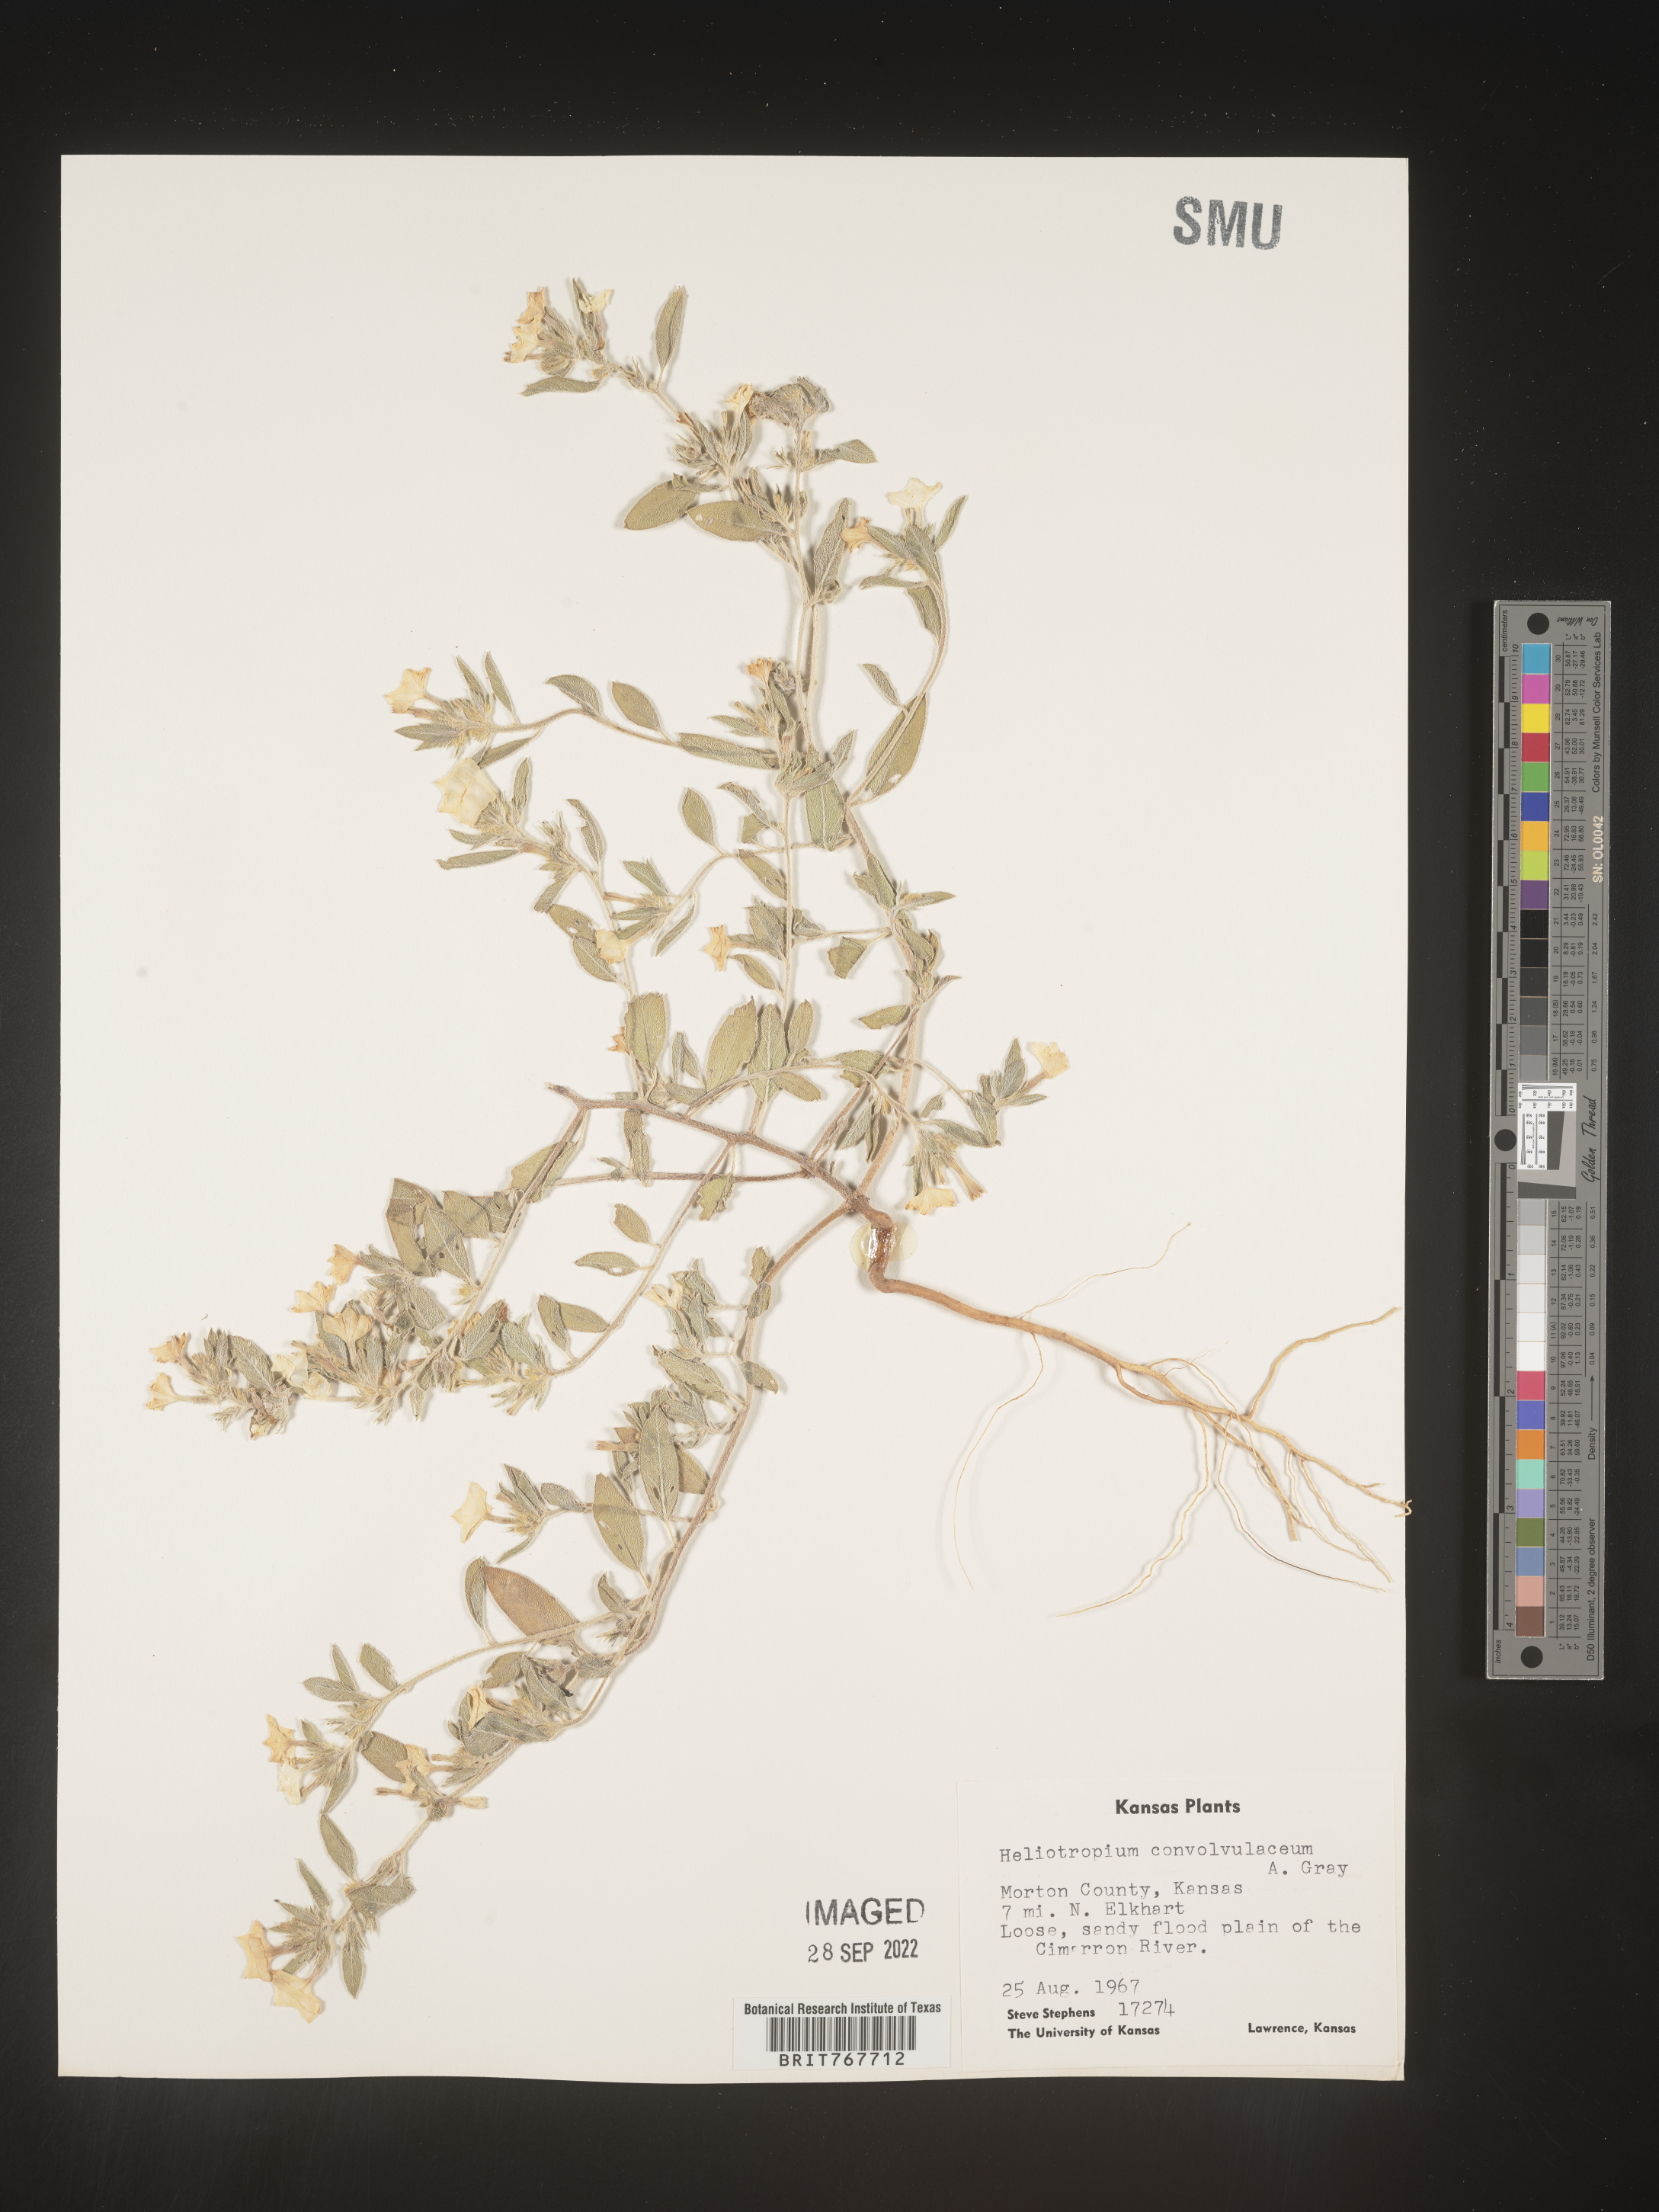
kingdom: Plantae
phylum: Tracheophyta
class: Magnoliopsida
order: Boraginales
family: Heliotropiaceae
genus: Heliotropium
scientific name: Heliotropium
